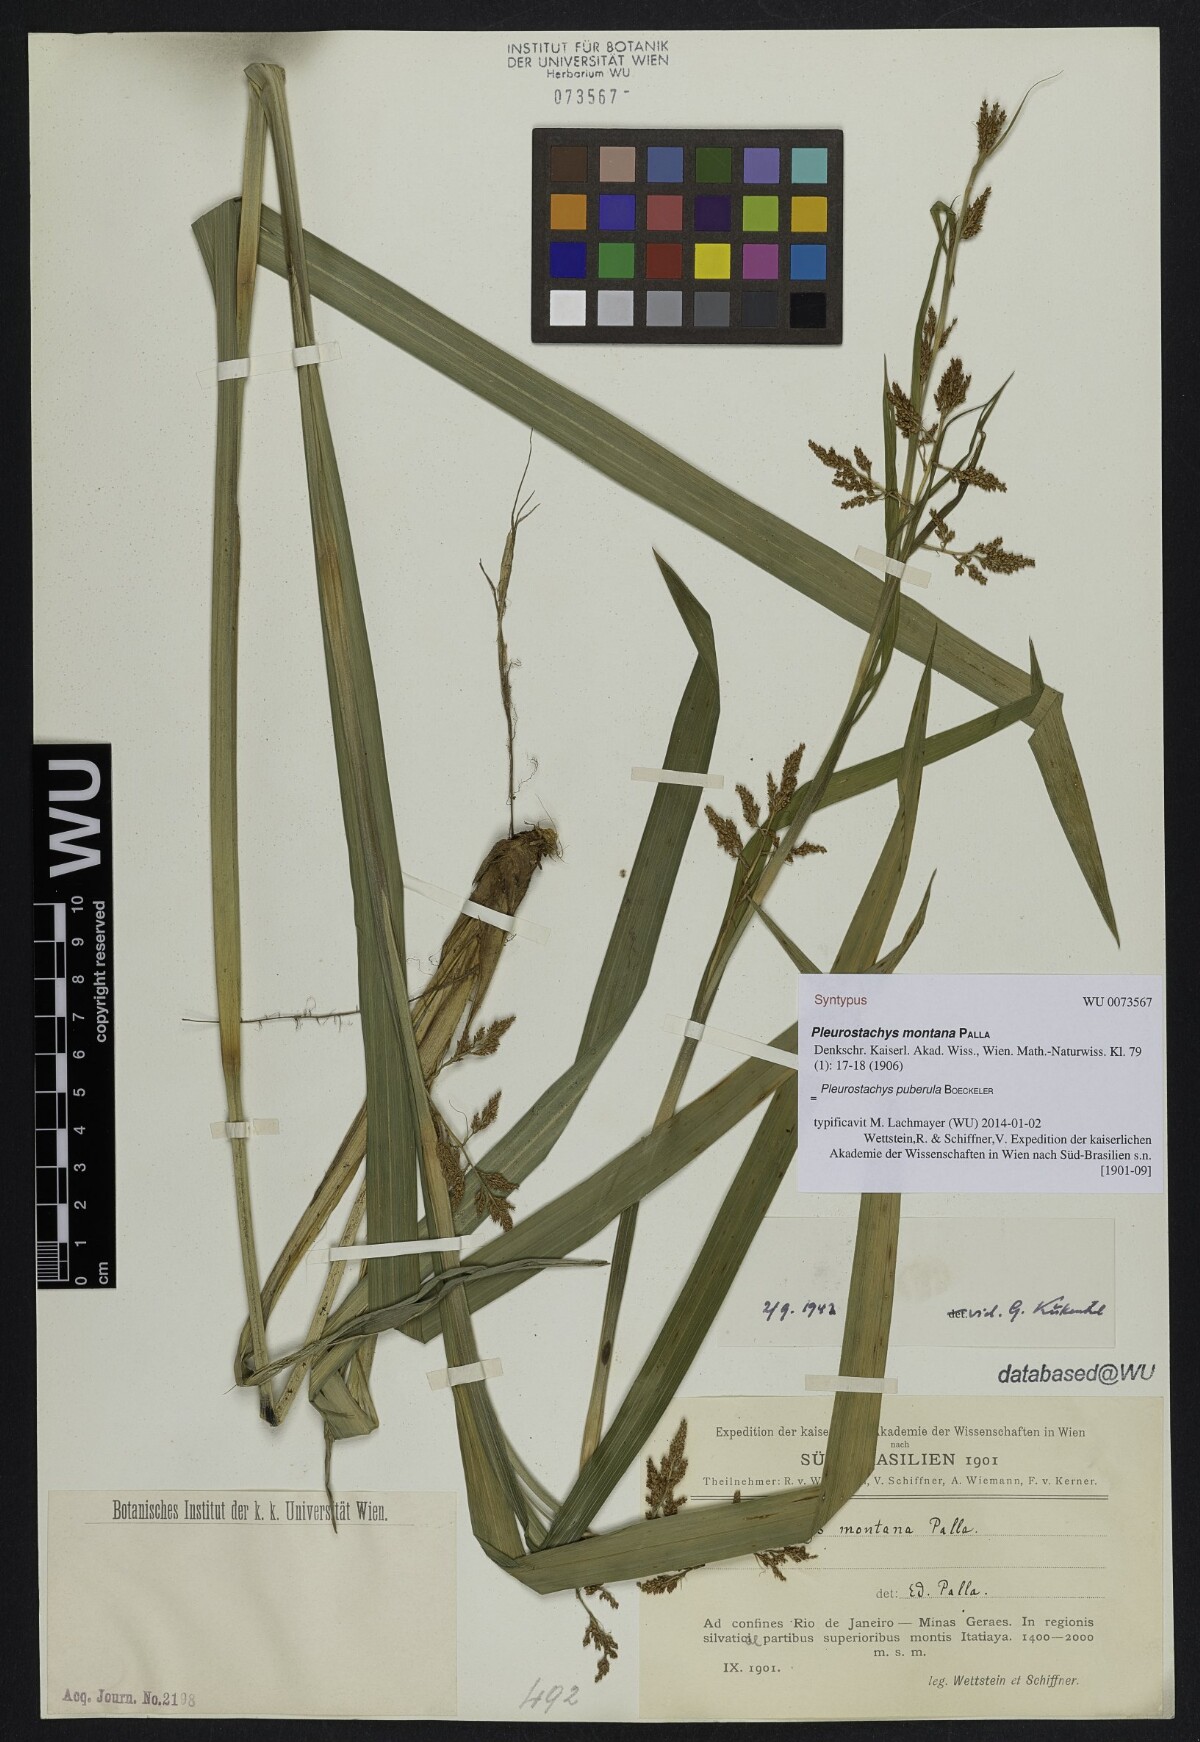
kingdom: Plantae
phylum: Tracheophyta
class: Liliopsida
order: Poales
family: Cyperaceae
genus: Rhynchospora
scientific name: Rhynchospora orbignyana
